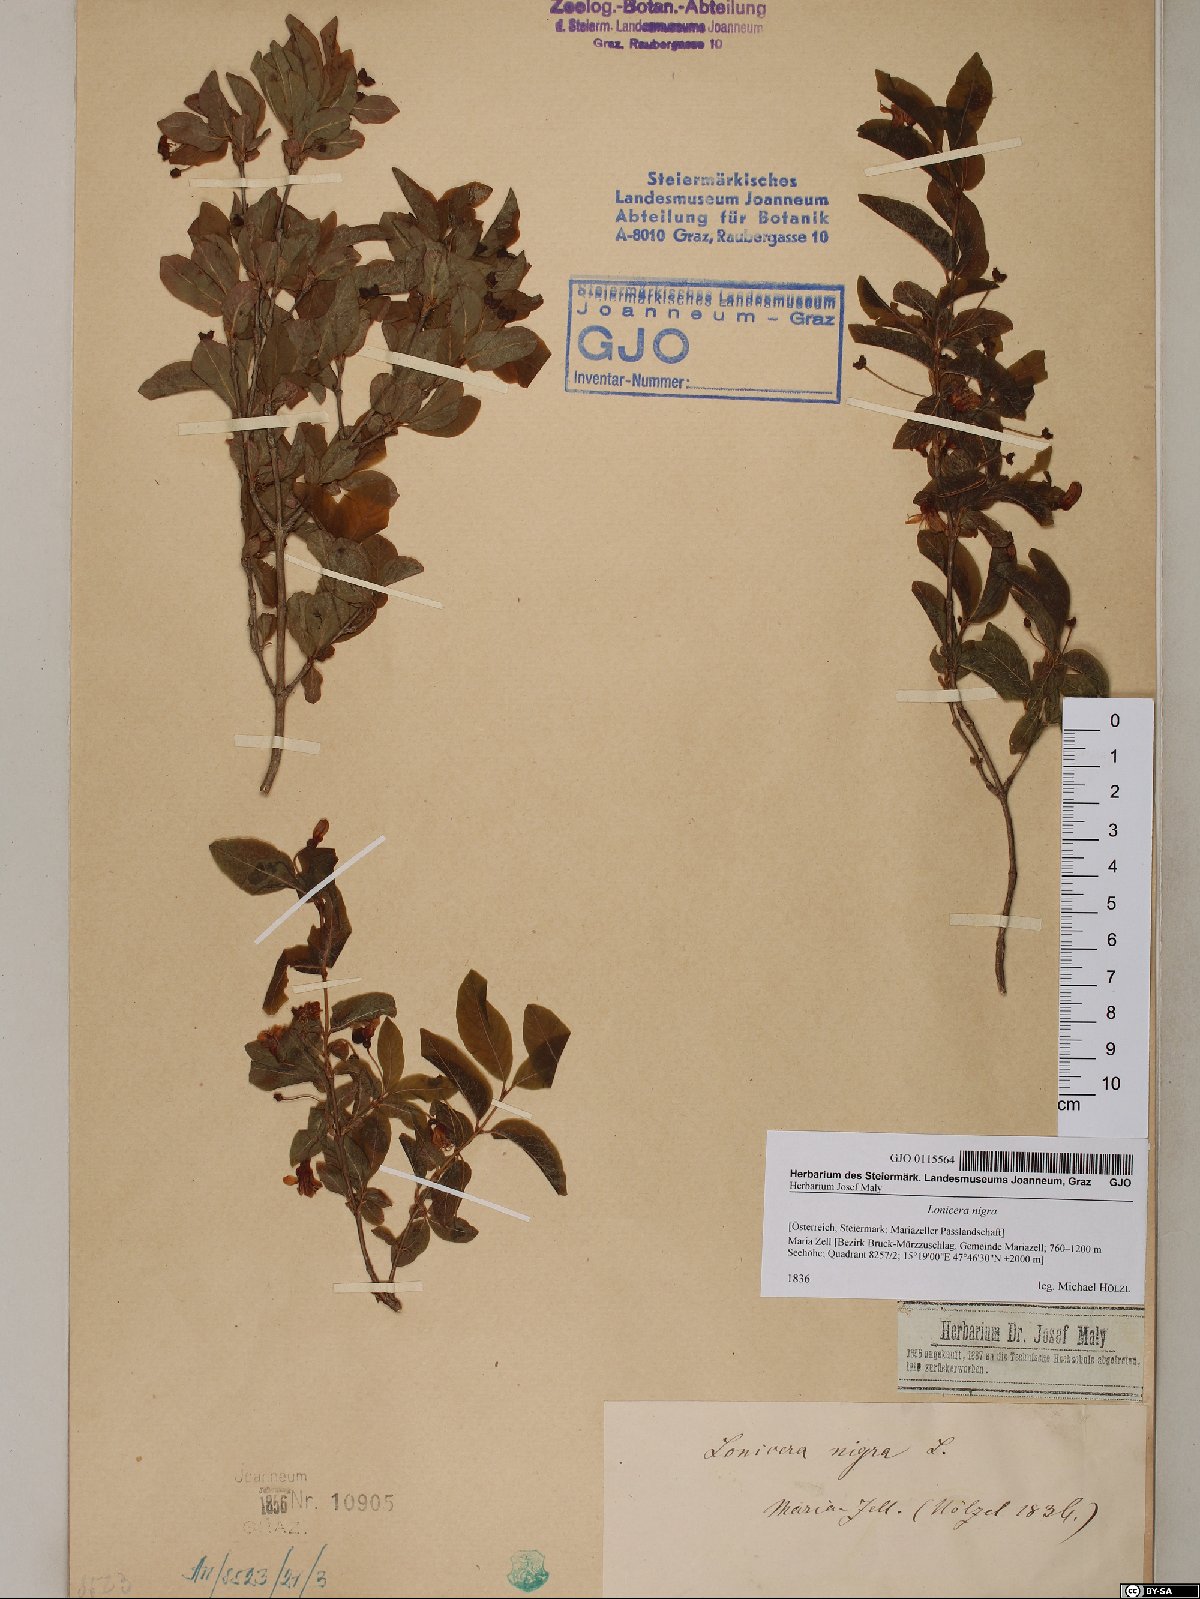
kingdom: Plantae
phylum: Tracheophyta
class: Magnoliopsida
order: Dipsacales
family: Caprifoliaceae
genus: Lonicera
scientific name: Lonicera nigra
